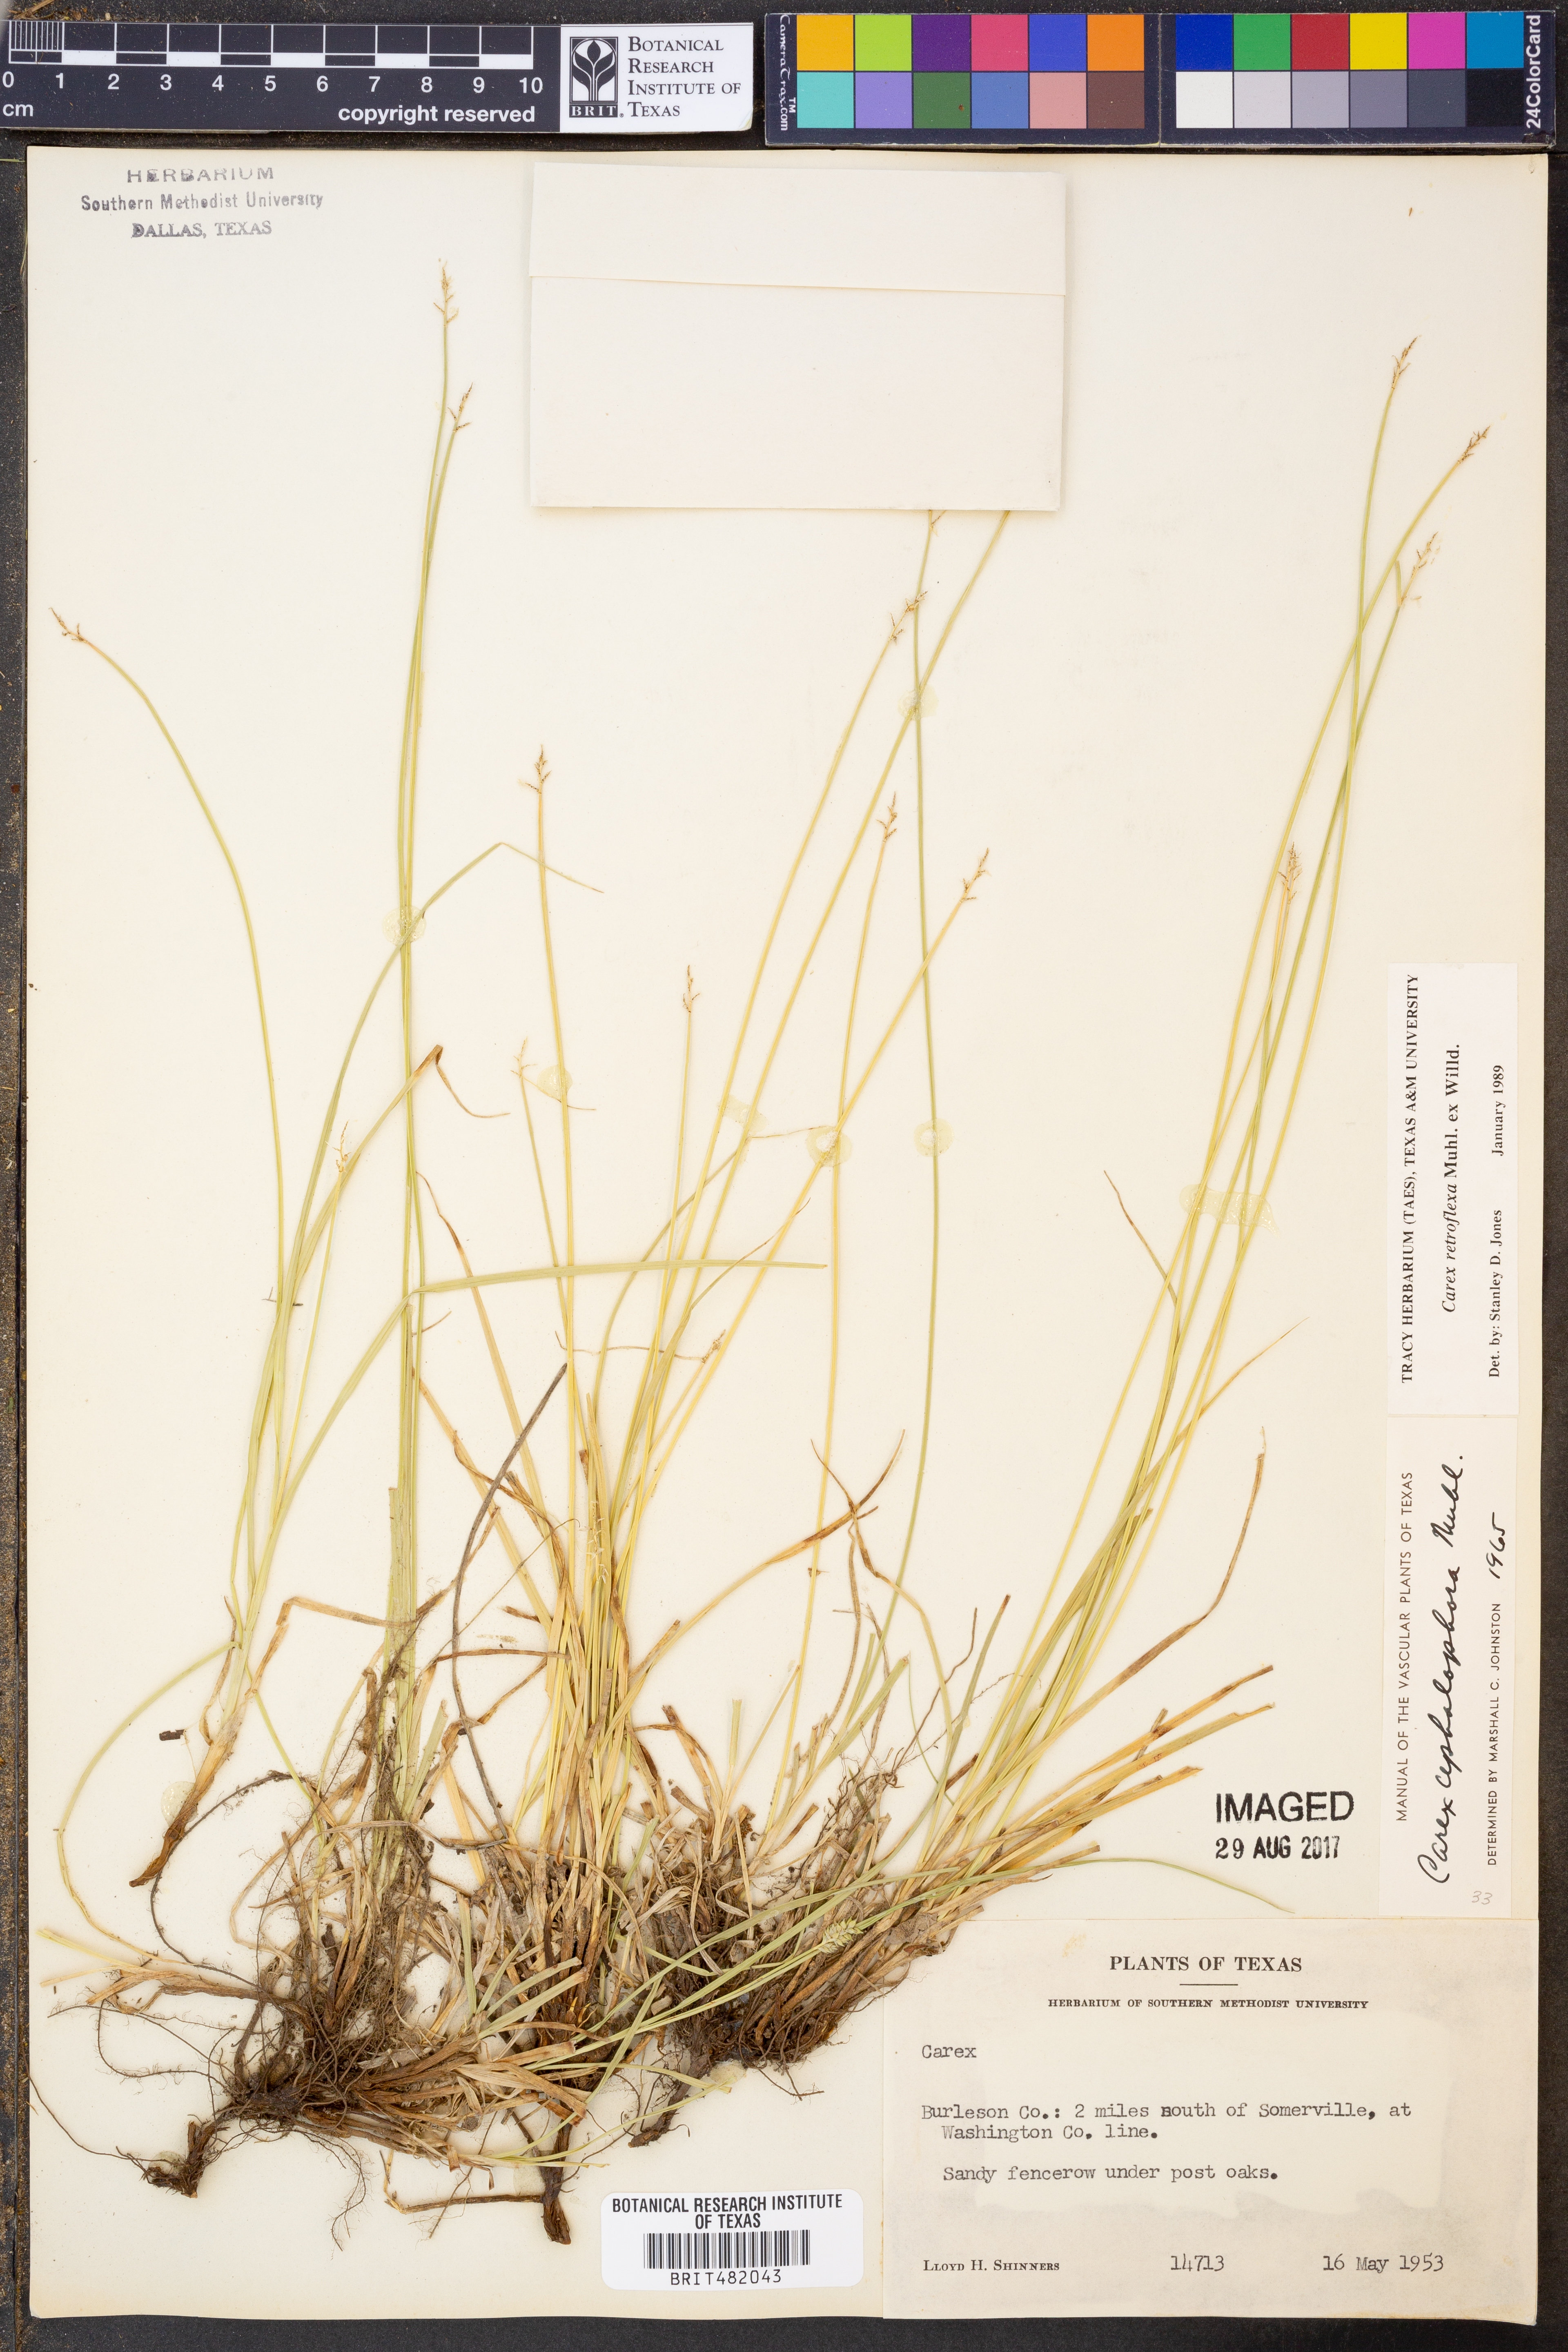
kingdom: Plantae
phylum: Tracheophyta
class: Liliopsida
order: Poales
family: Cyperaceae
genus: Carex
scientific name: Carex retroflexa
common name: Reflexed sedge
